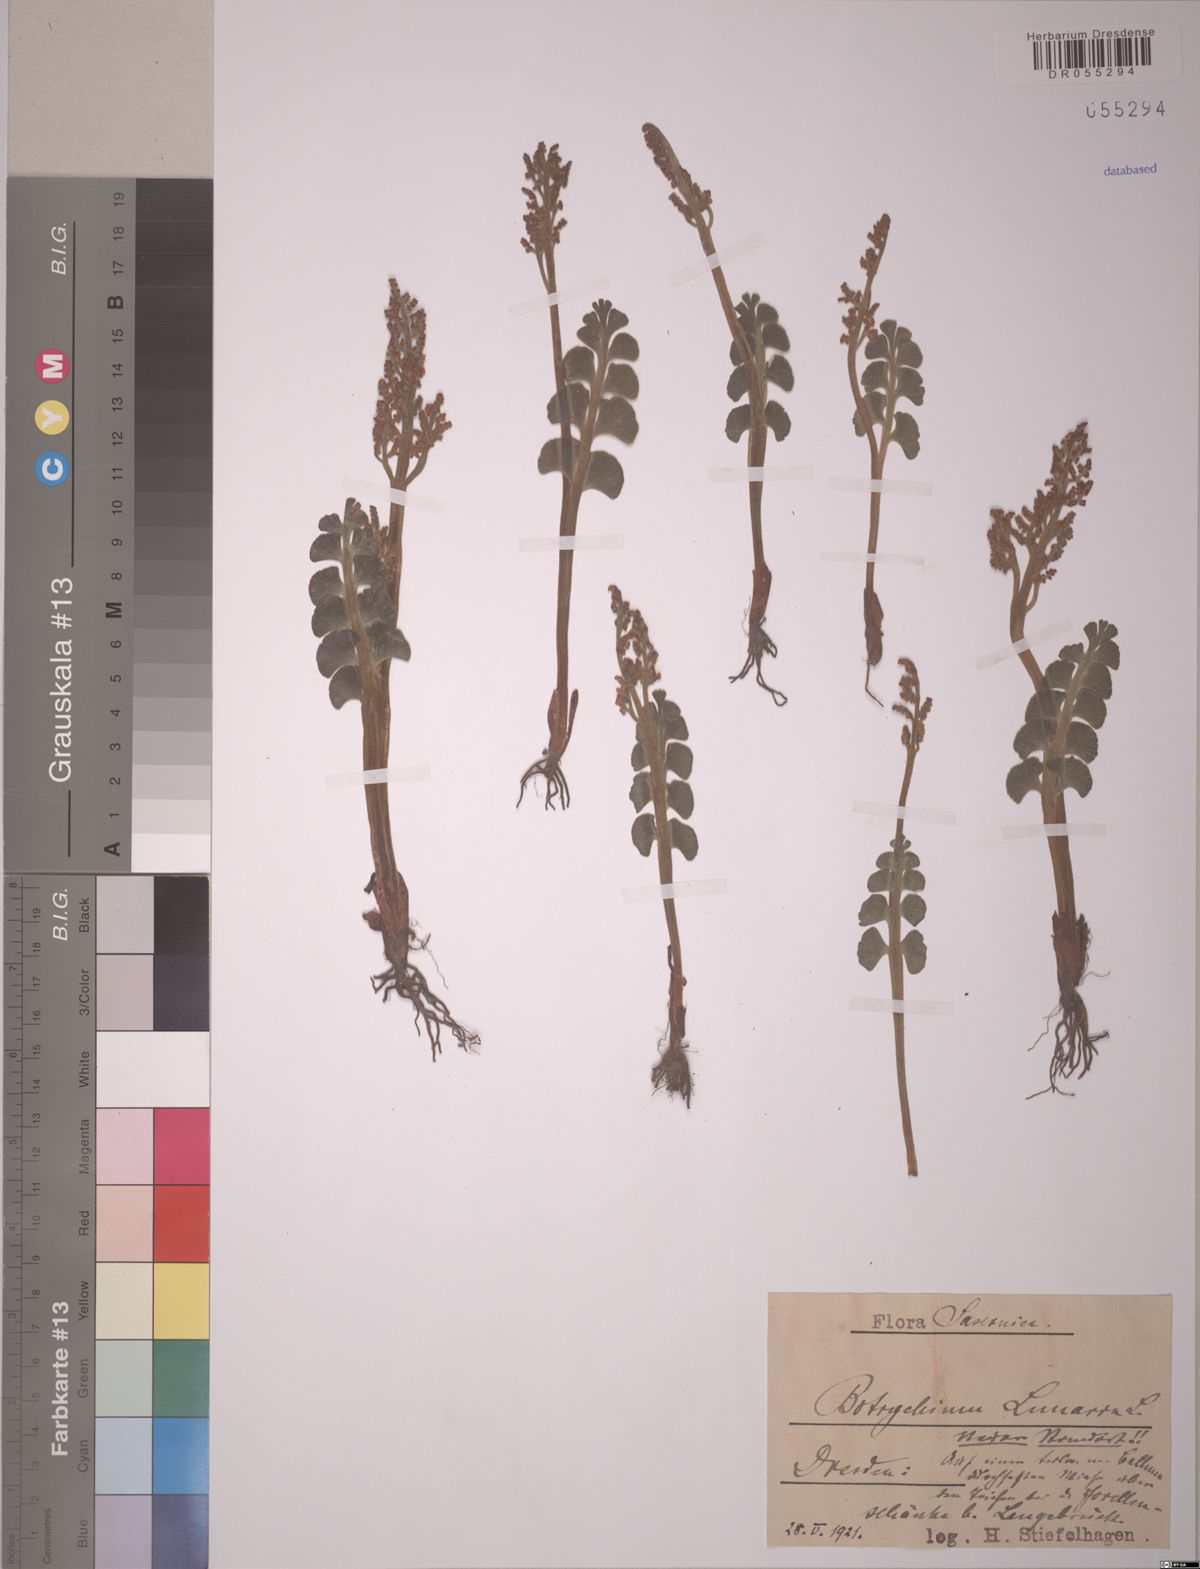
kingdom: Plantae
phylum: Tracheophyta
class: Polypodiopsida
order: Ophioglossales
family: Ophioglossaceae
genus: Botrychium
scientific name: Botrychium lunaria
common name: Moonwort
